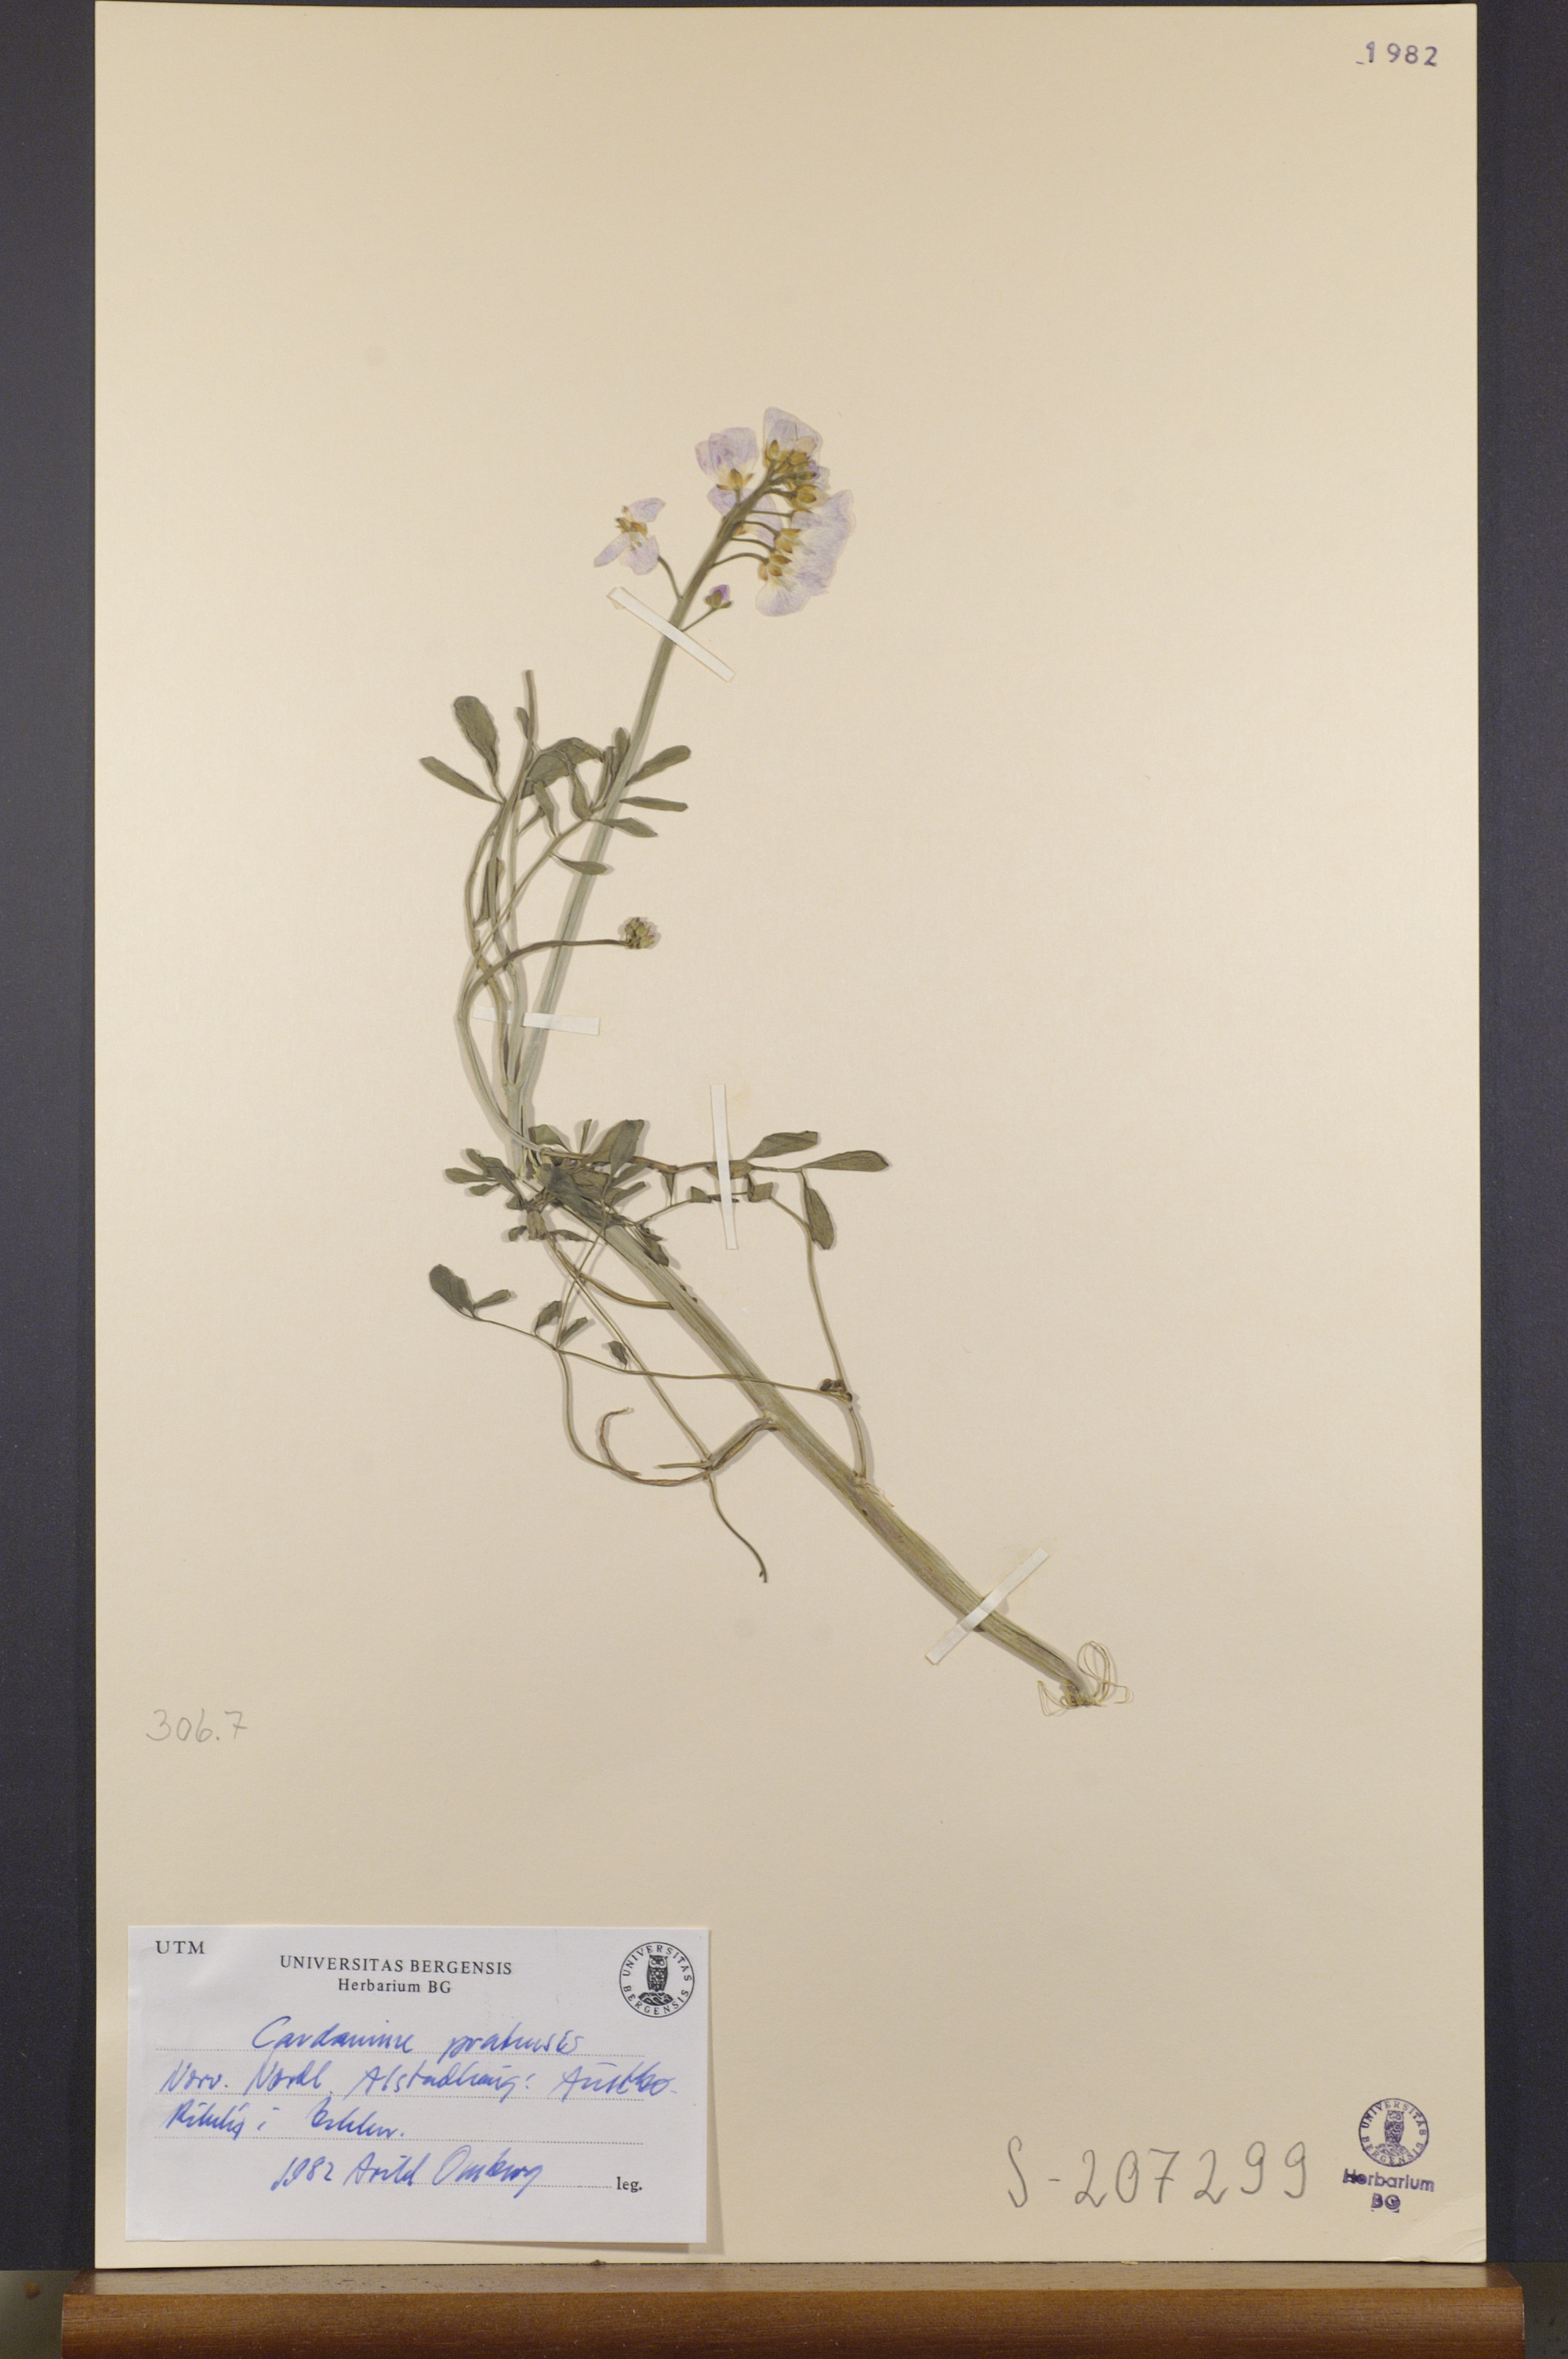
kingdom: Plantae
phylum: Tracheophyta
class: Magnoliopsida
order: Brassicales
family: Brassicaceae
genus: Cardamine
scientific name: Cardamine pratensis
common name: Cuckoo flower
